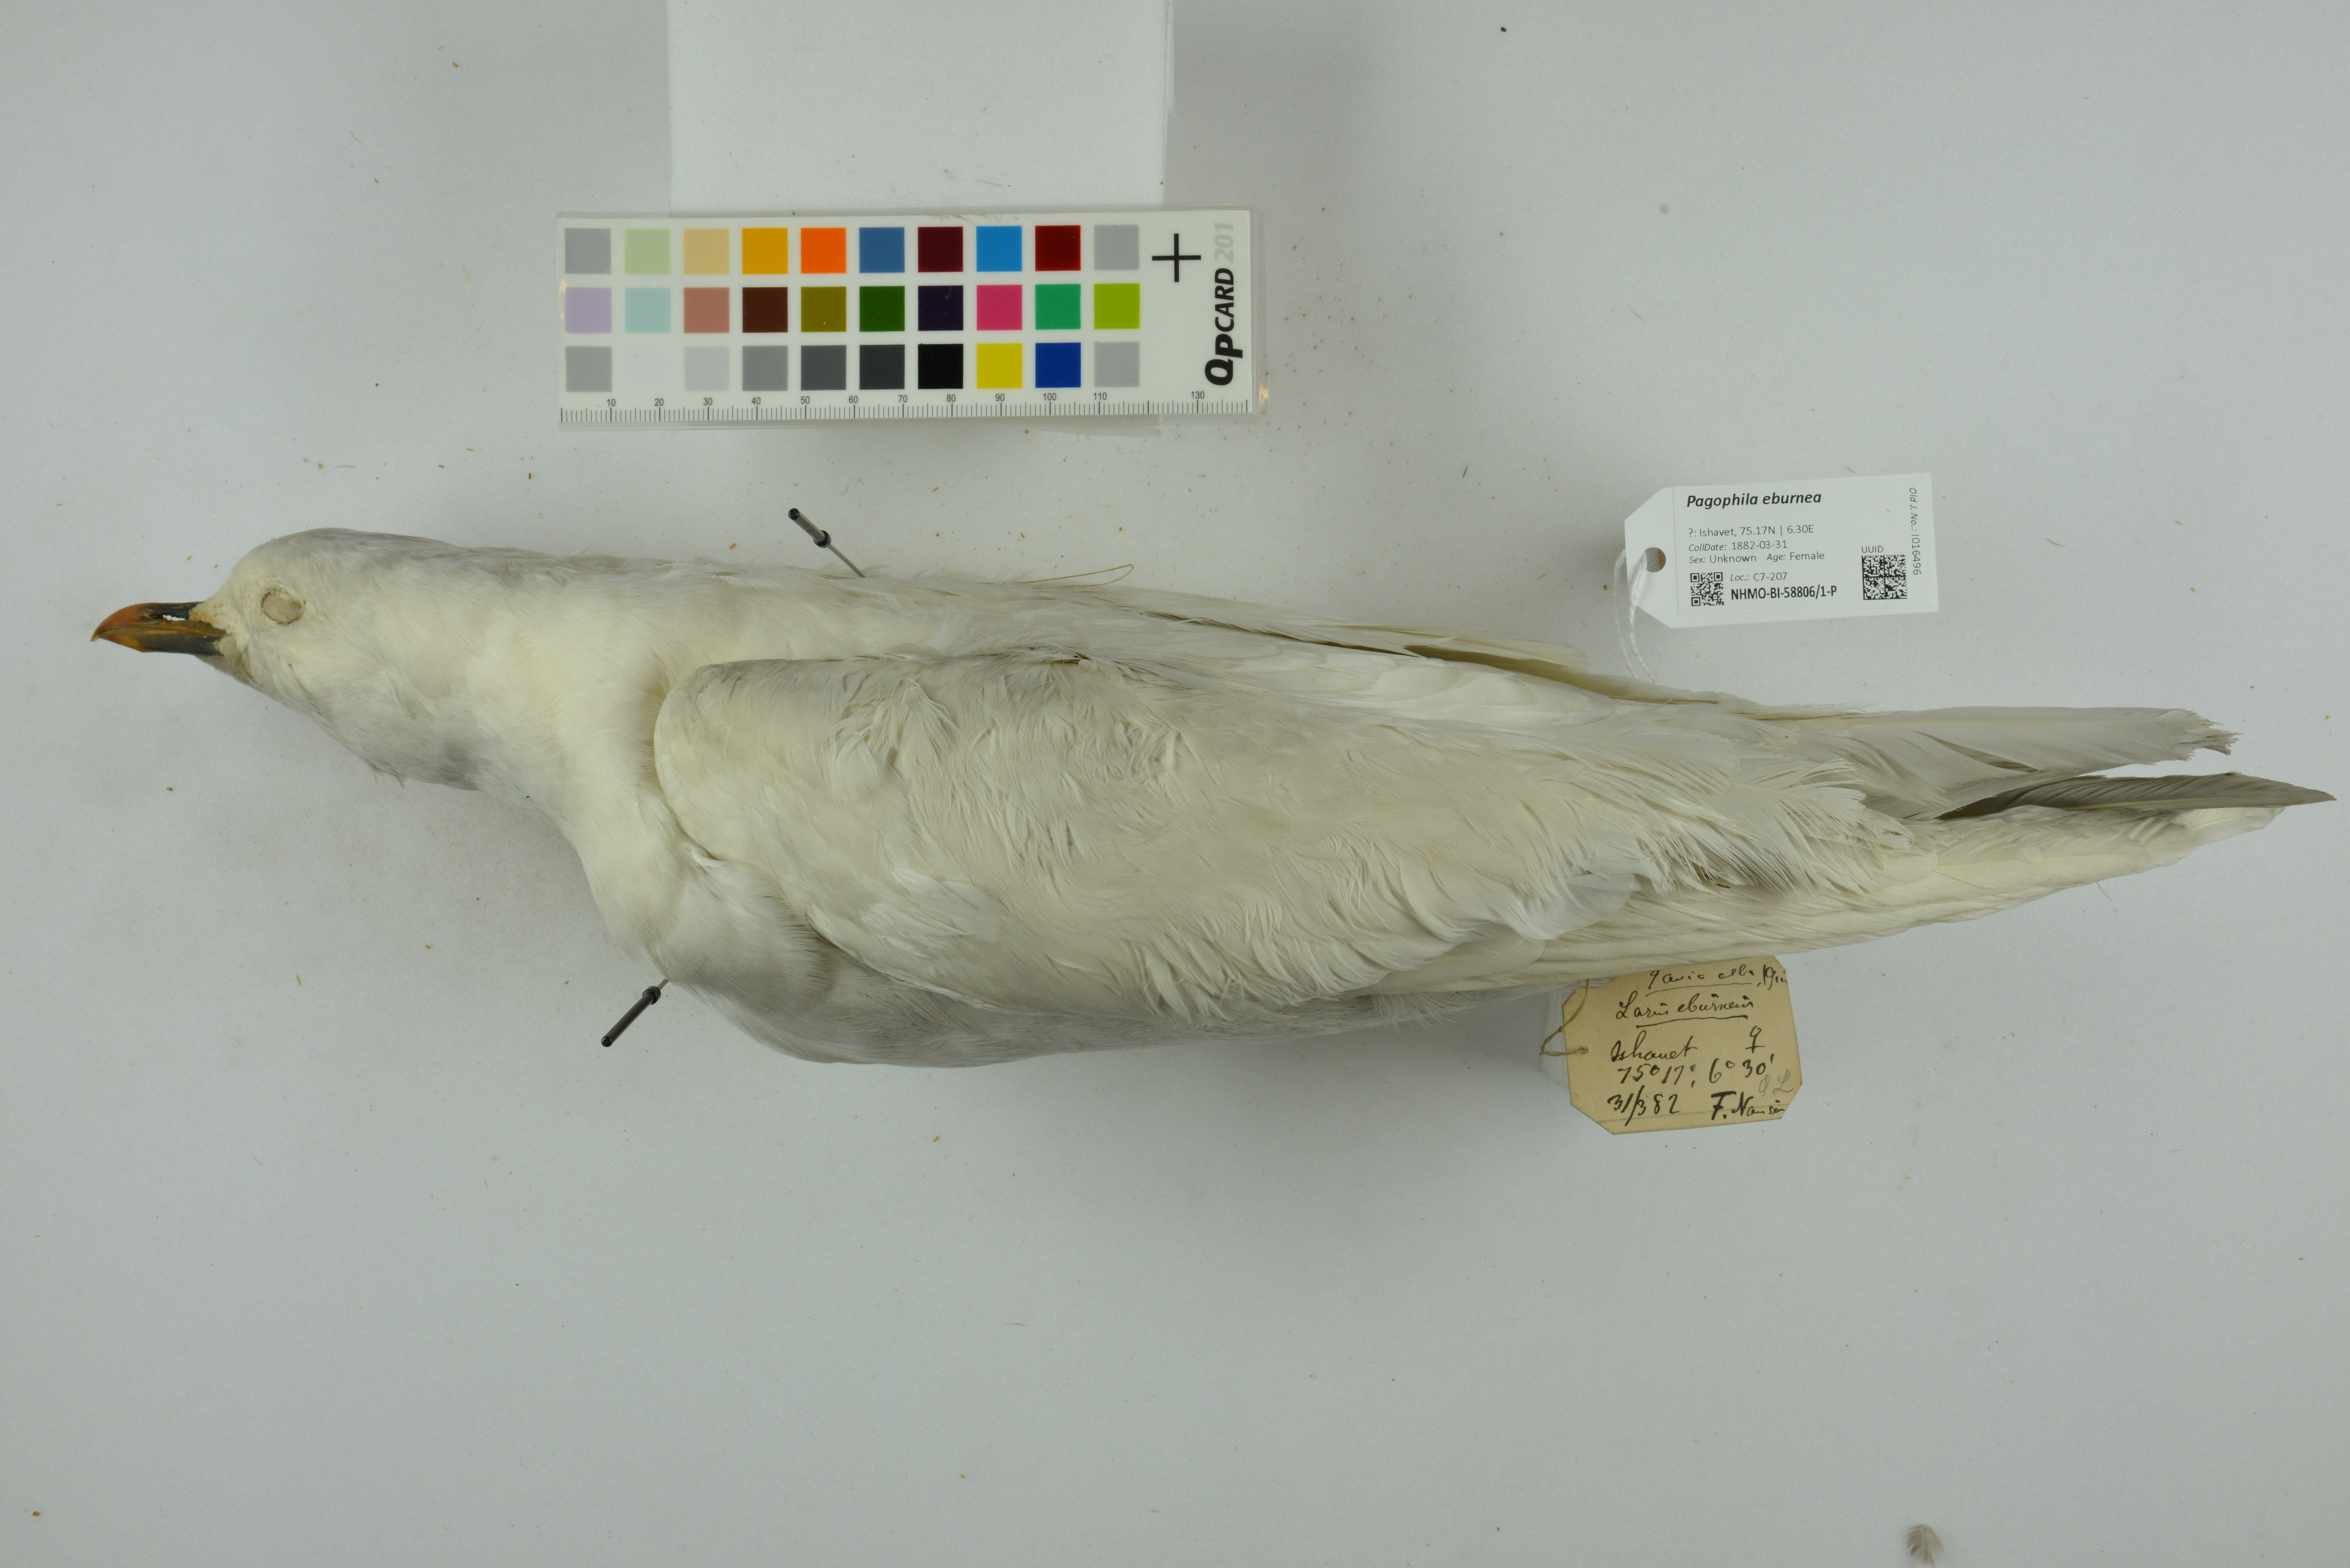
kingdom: Animalia
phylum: Chordata
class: Aves
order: Charadriiformes
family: Laridae
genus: Pagophila
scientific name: Pagophila eburnea
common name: Ivory gull
